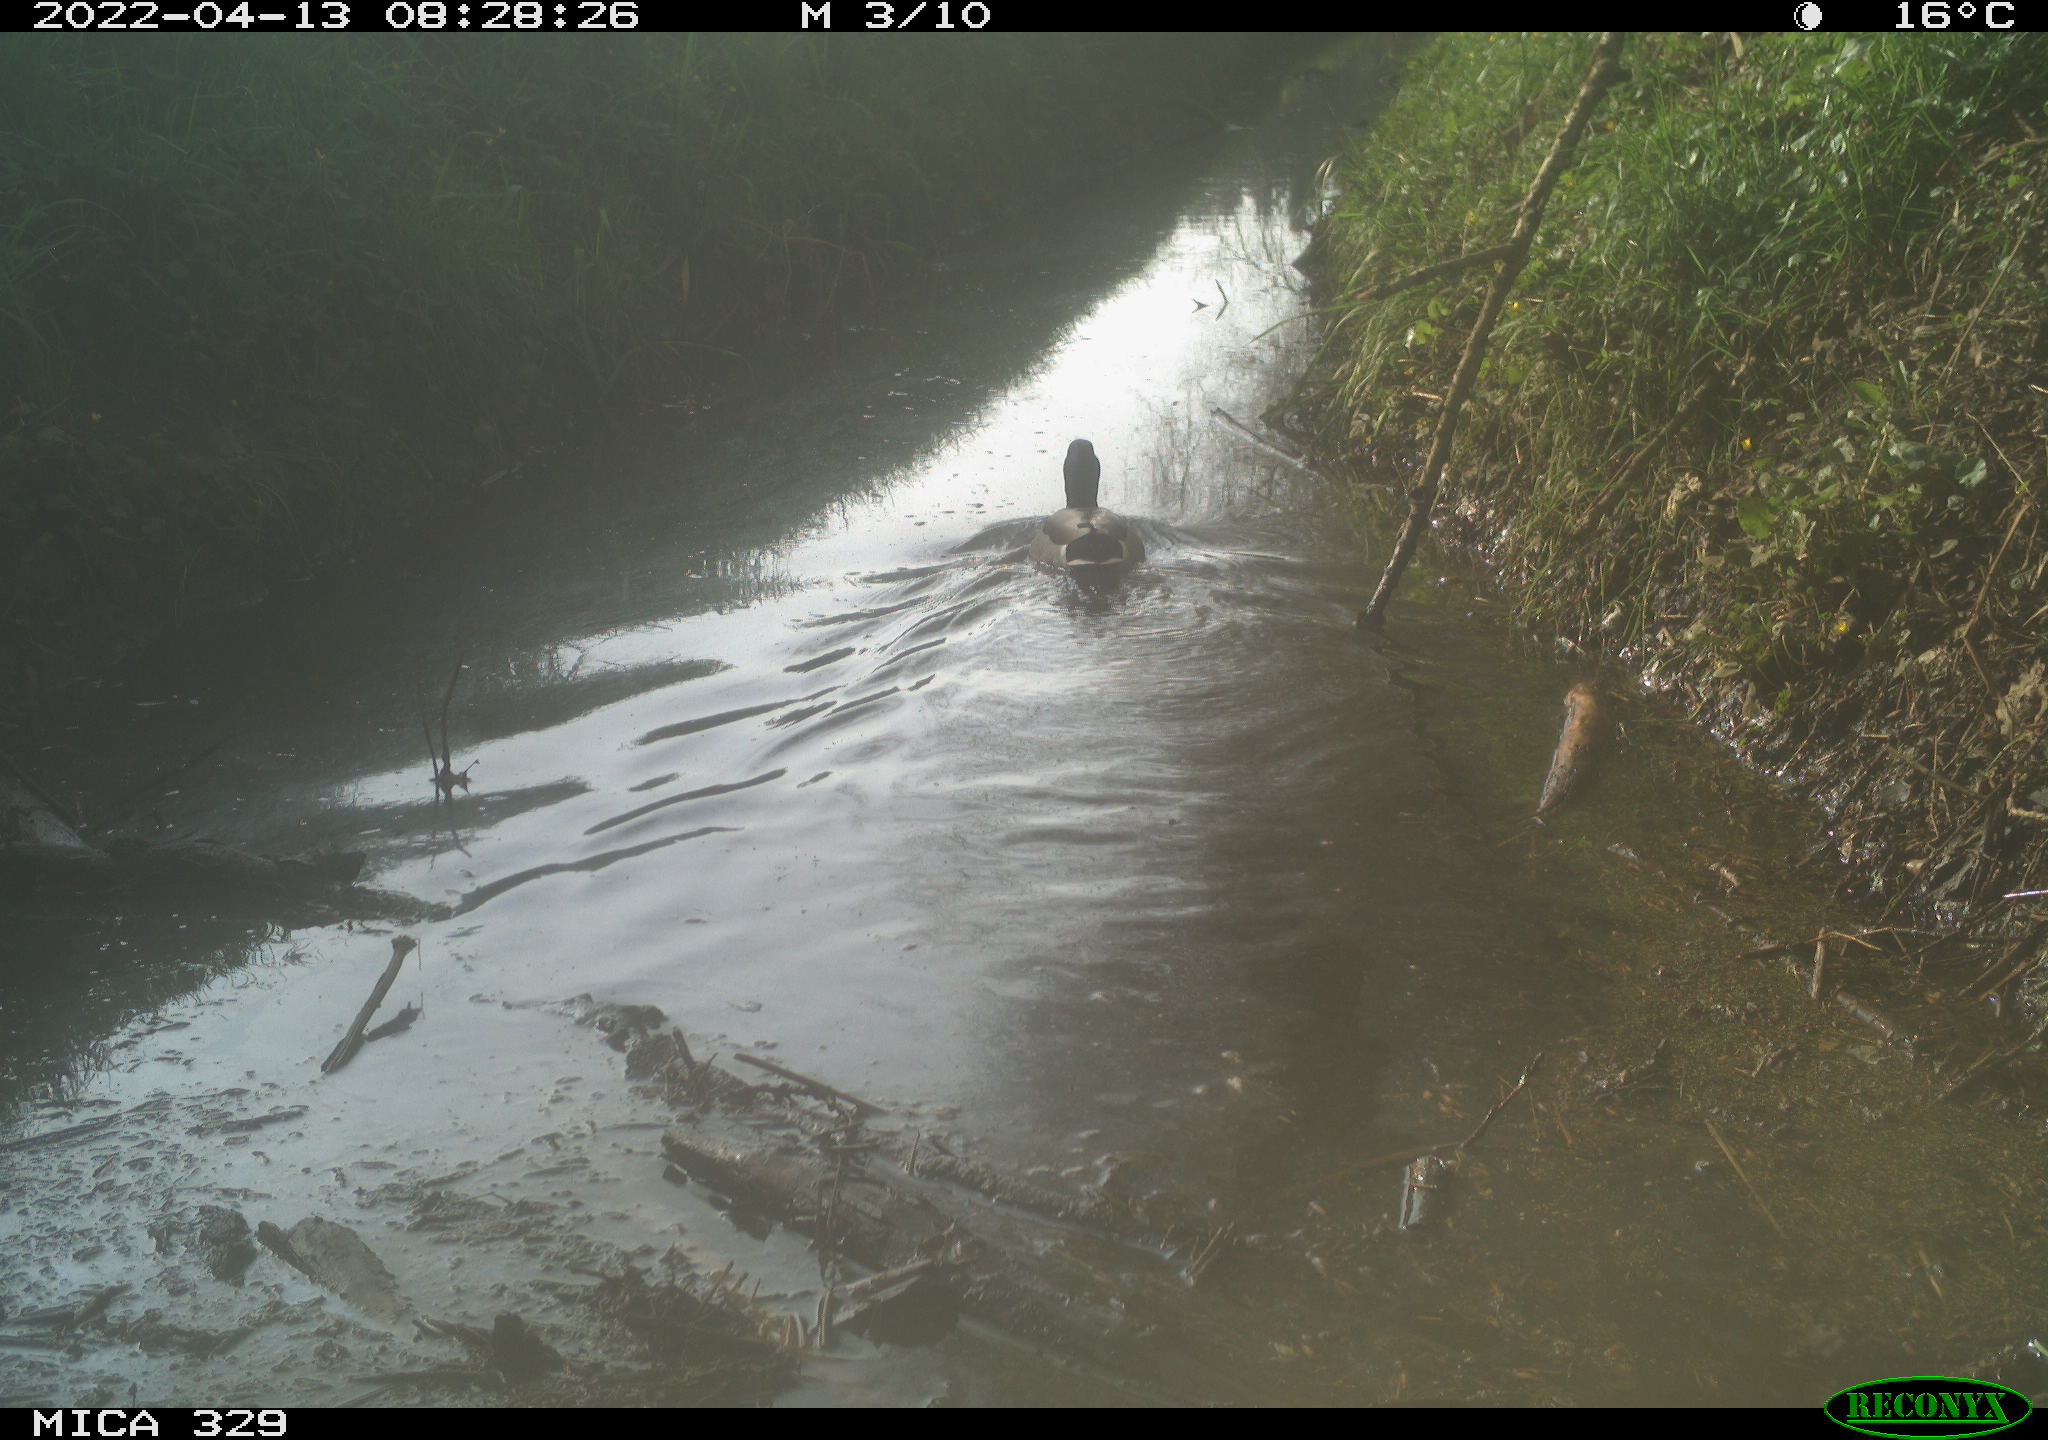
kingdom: Animalia
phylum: Chordata
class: Aves
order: Anseriformes
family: Anatidae
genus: Anas
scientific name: Anas platyrhynchos
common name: Mallard
